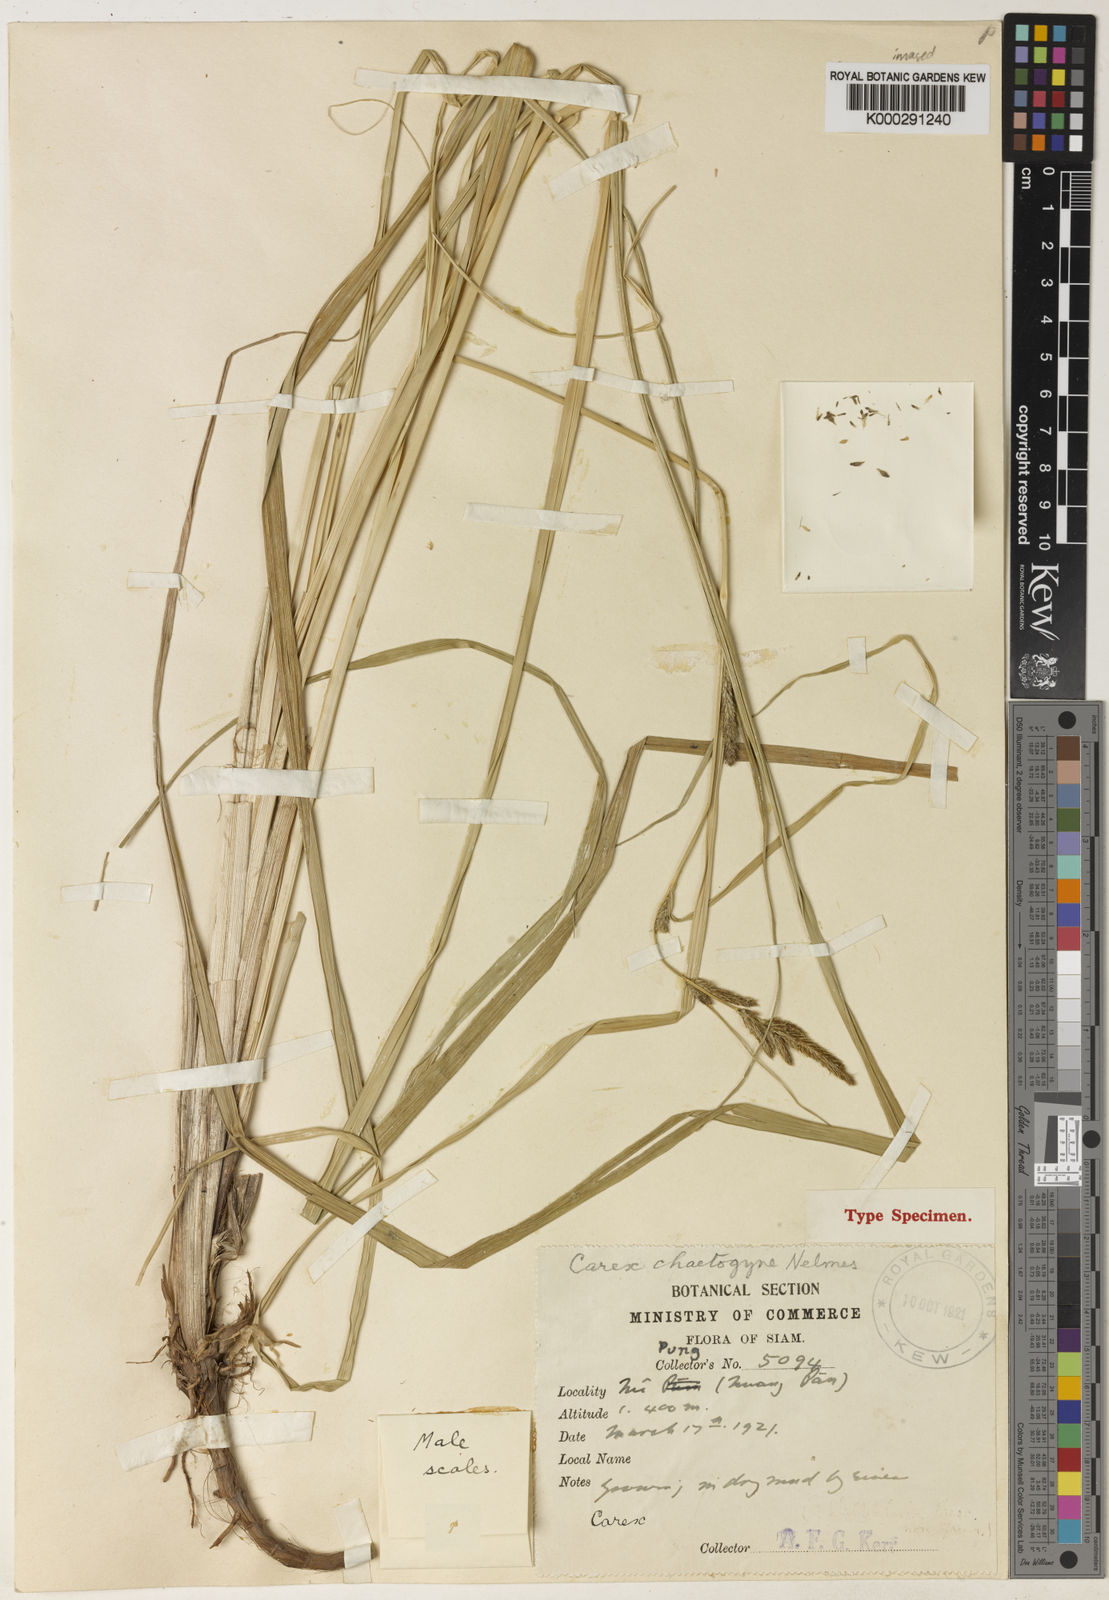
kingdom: Plantae
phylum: Tracheophyta
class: Liliopsida
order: Poales
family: Cyperaceae
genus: Carex
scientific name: Carex fedia
